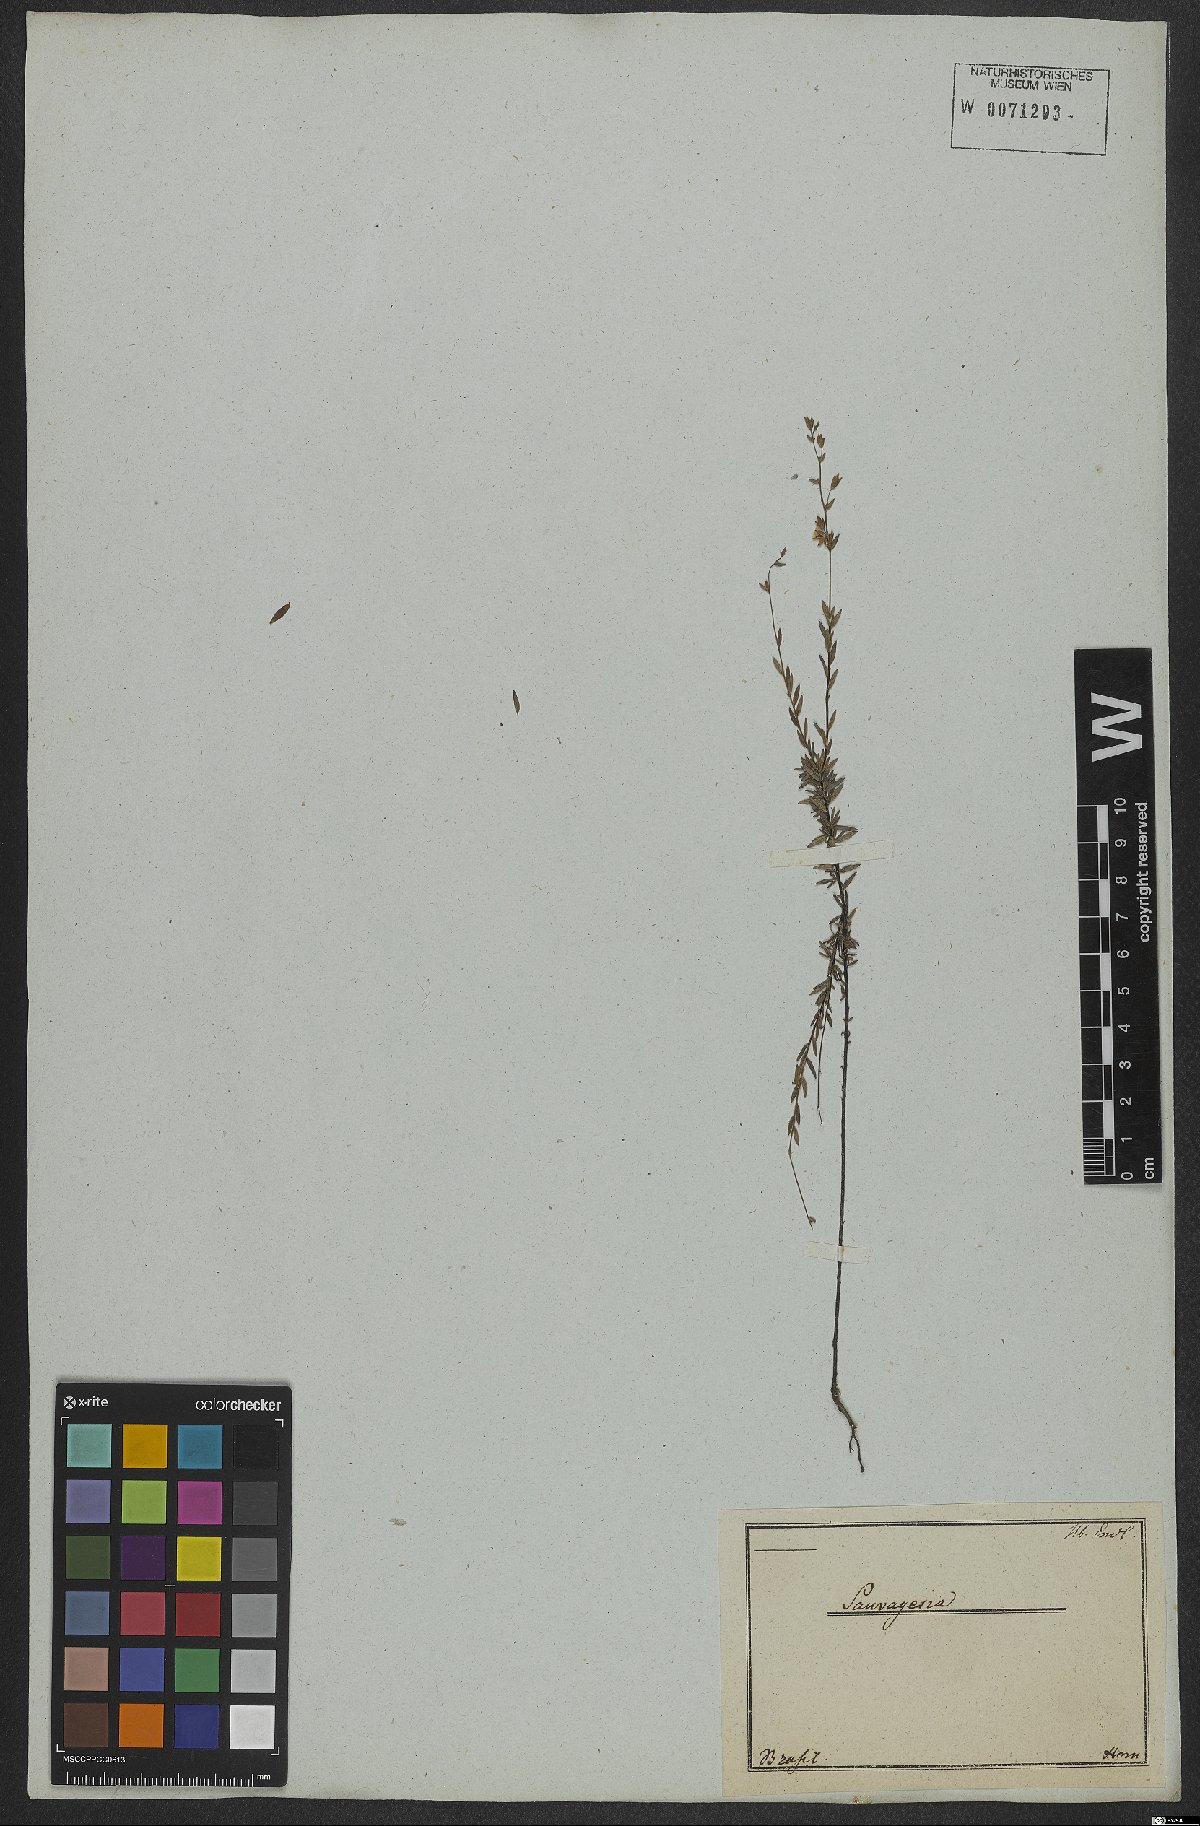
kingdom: Plantae
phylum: Tracheophyta
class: Magnoliopsida
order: Malpighiales
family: Ochnaceae
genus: Sauvagesia
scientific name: Sauvagesia tenella
